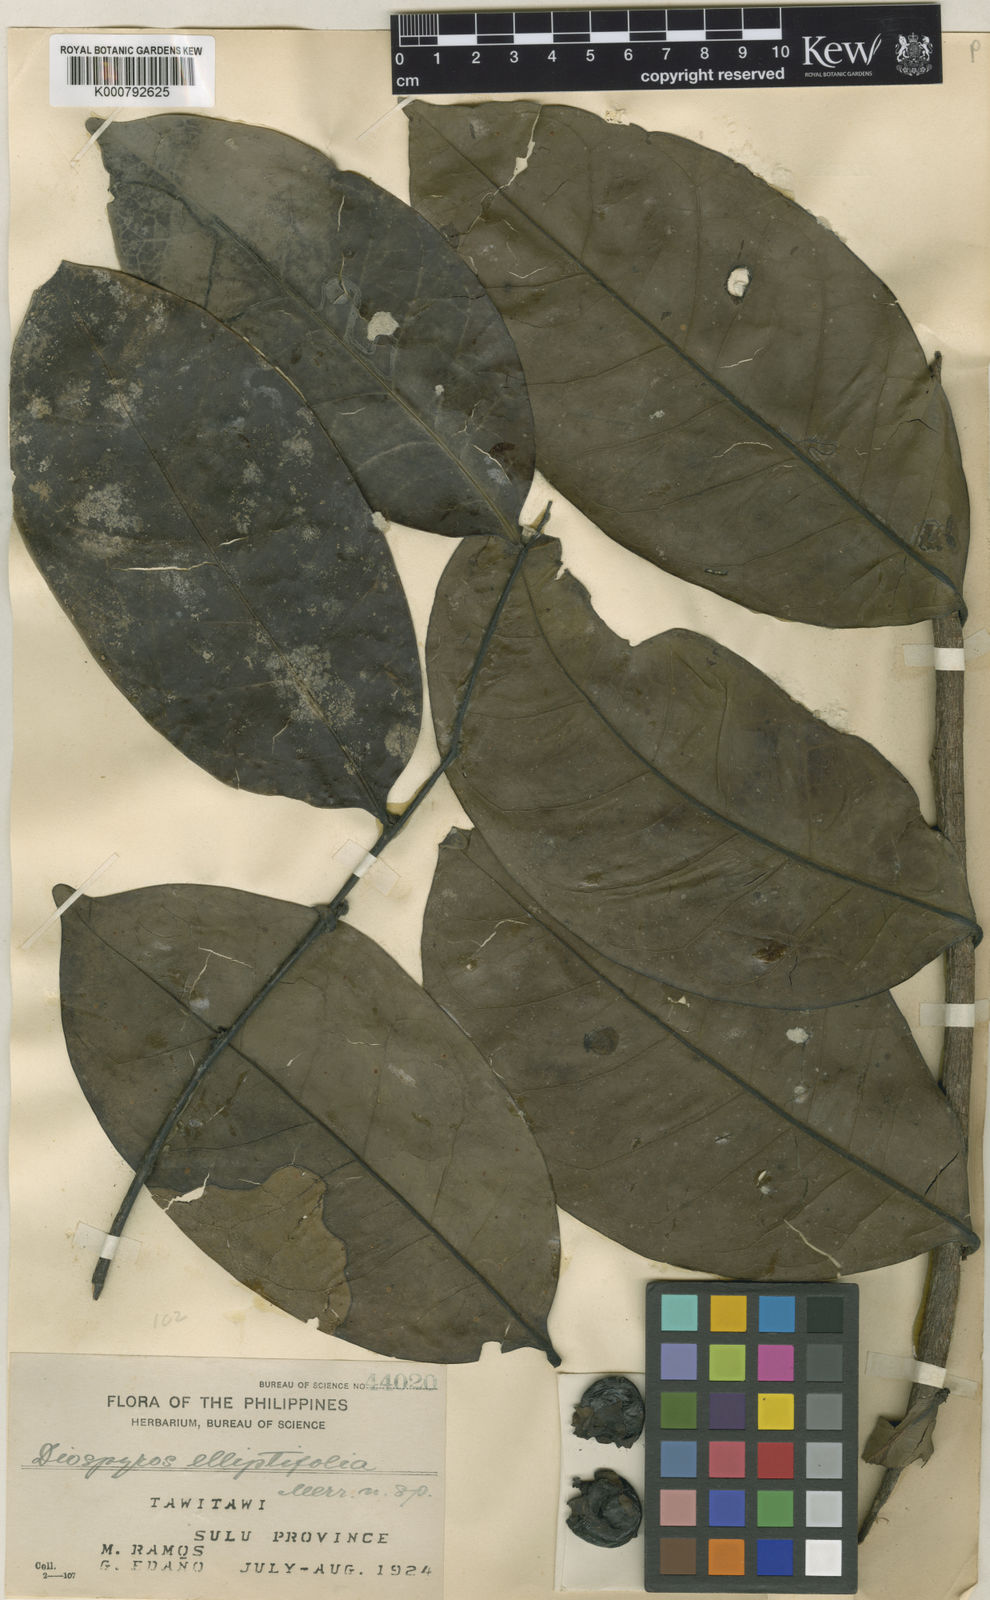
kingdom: Plantae
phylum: Tracheophyta
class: Magnoliopsida
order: Ericales
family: Ebenaceae
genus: Diospyros
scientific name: Diospyros elliptifolia
